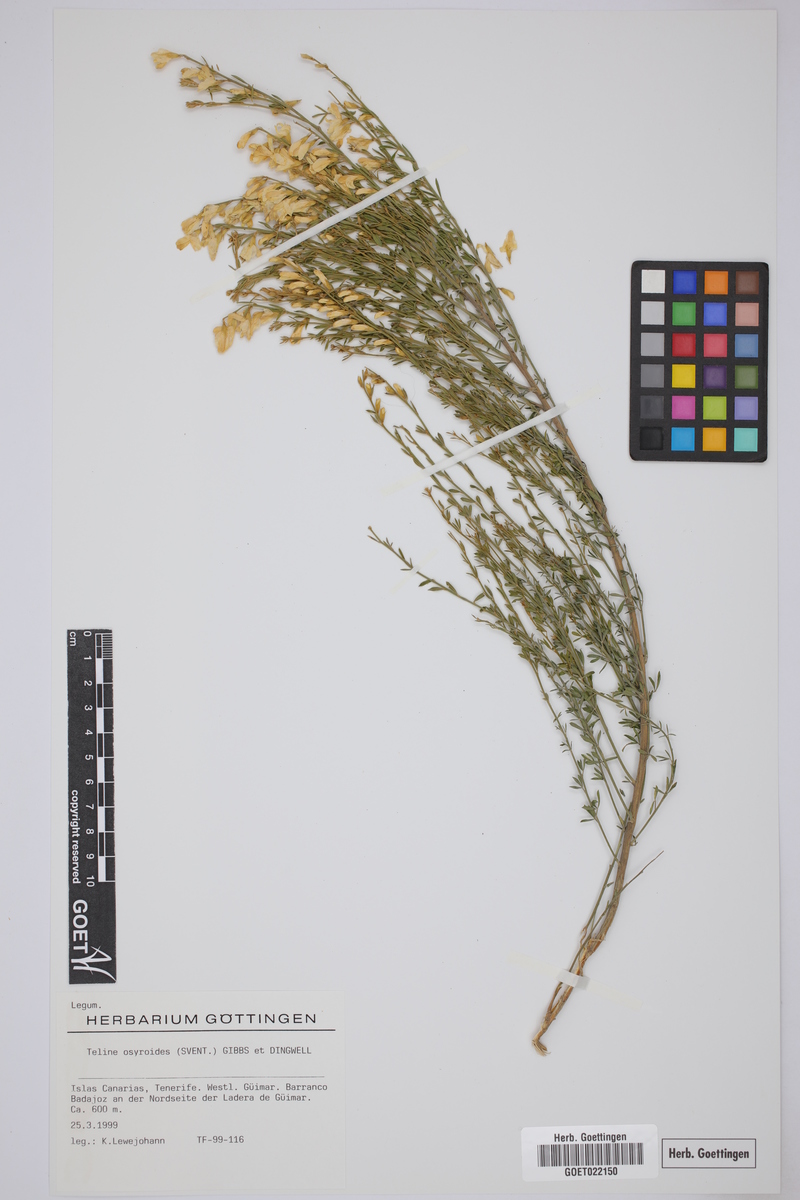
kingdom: Plantae
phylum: Tracheophyta
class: Magnoliopsida
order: Fabales
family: Fabaceae
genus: Cytisus
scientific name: Cytisus osyroides
